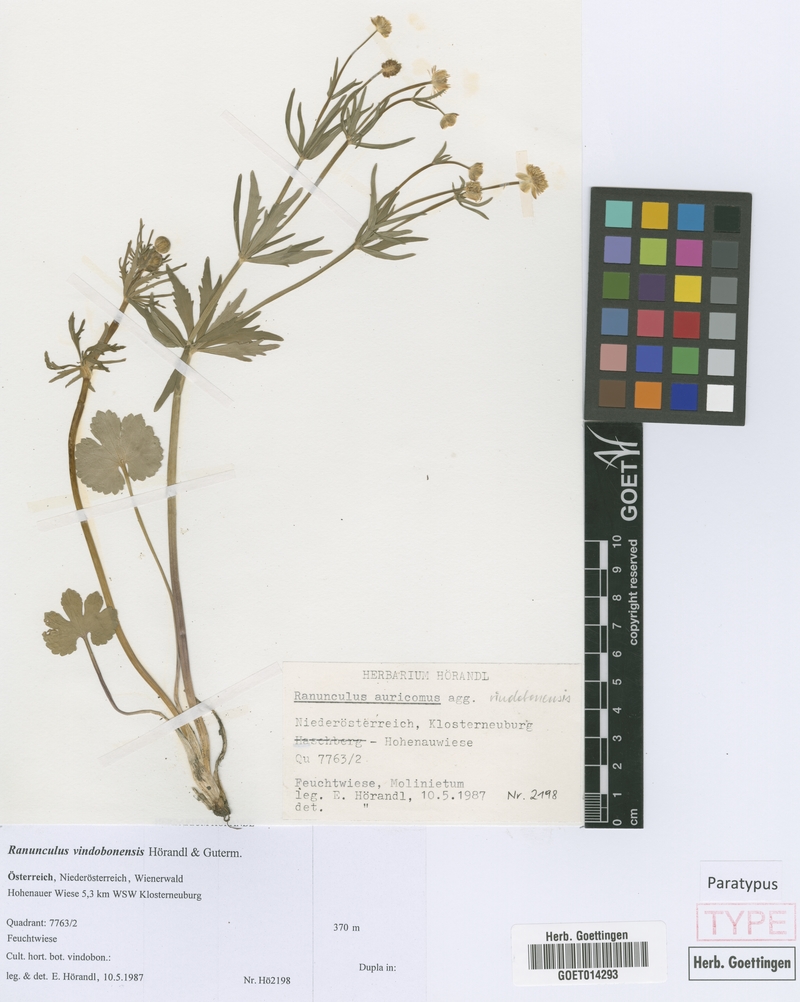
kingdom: Plantae
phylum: Tracheophyta
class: Magnoliopsida
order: Ranunculales
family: Ranunculaceae
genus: Ranunculus
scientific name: Ranunculus vindobonensis
